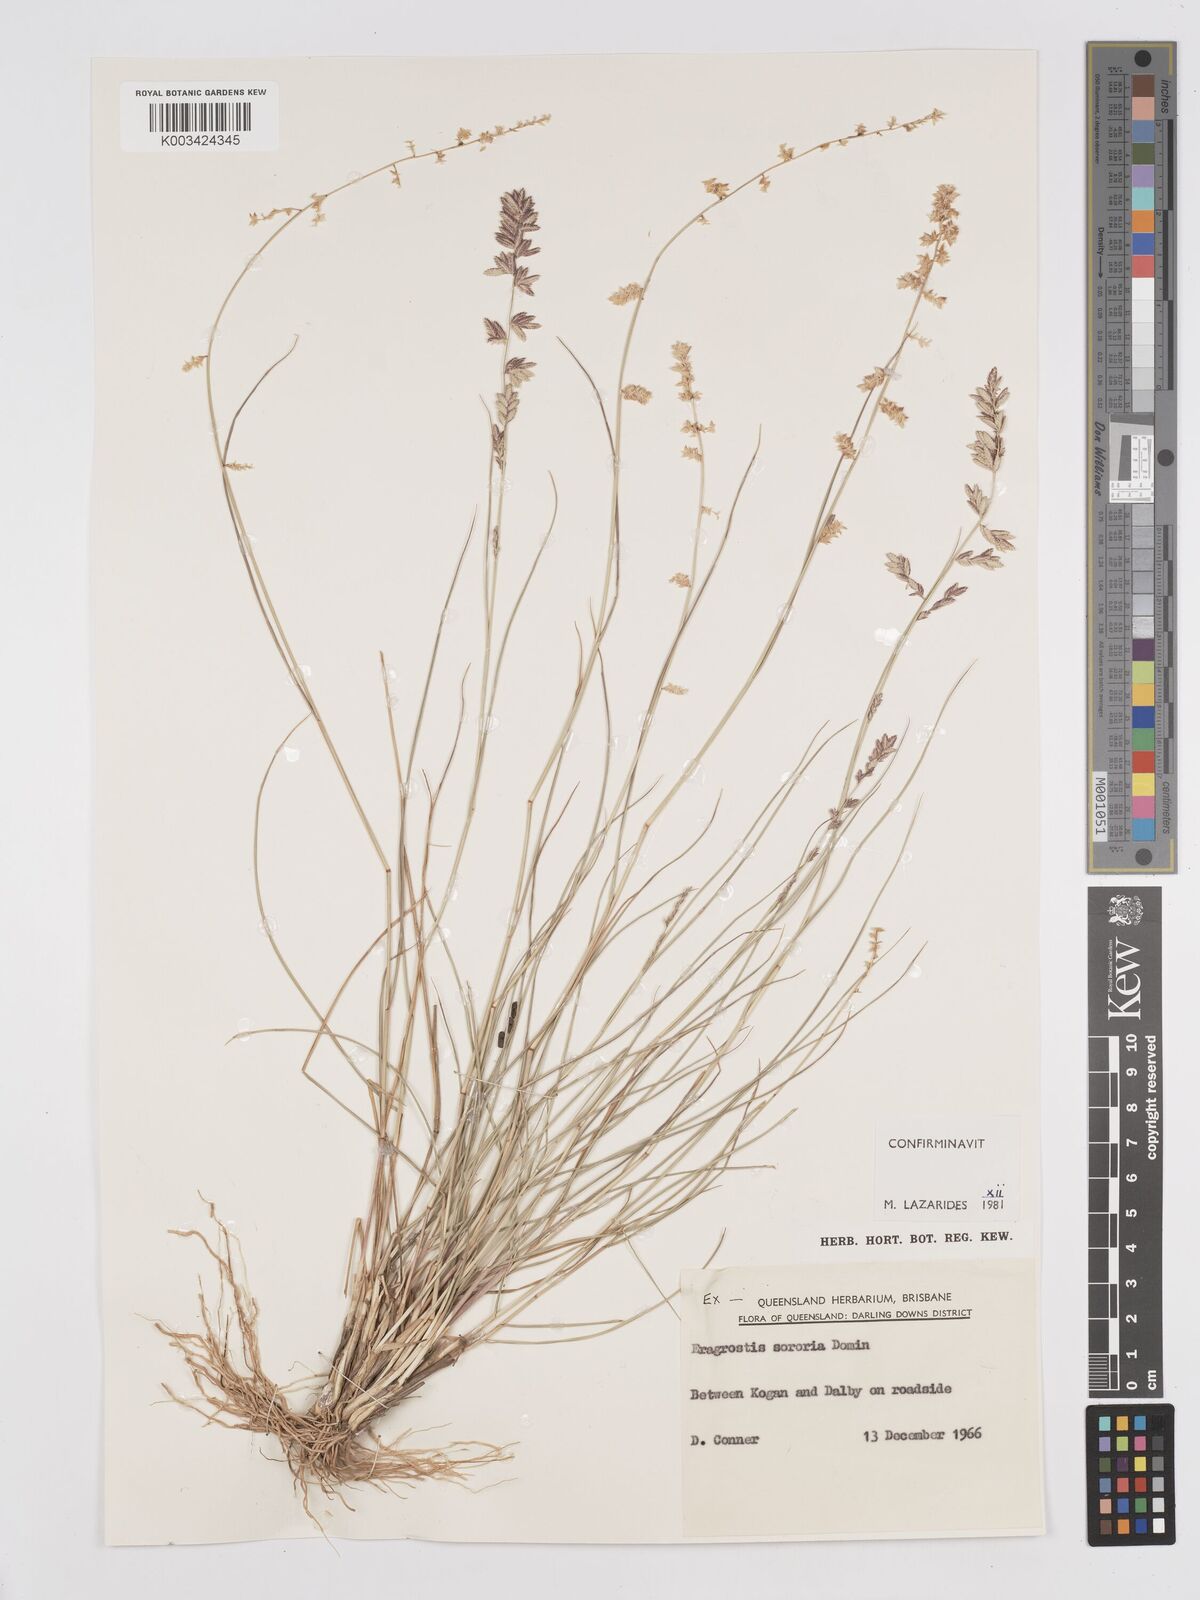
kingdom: Plantae
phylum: Tracheophyta
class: Liliopsida
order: Poales
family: Poaceae
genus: Eragrostis
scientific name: Eragrostis sororia
